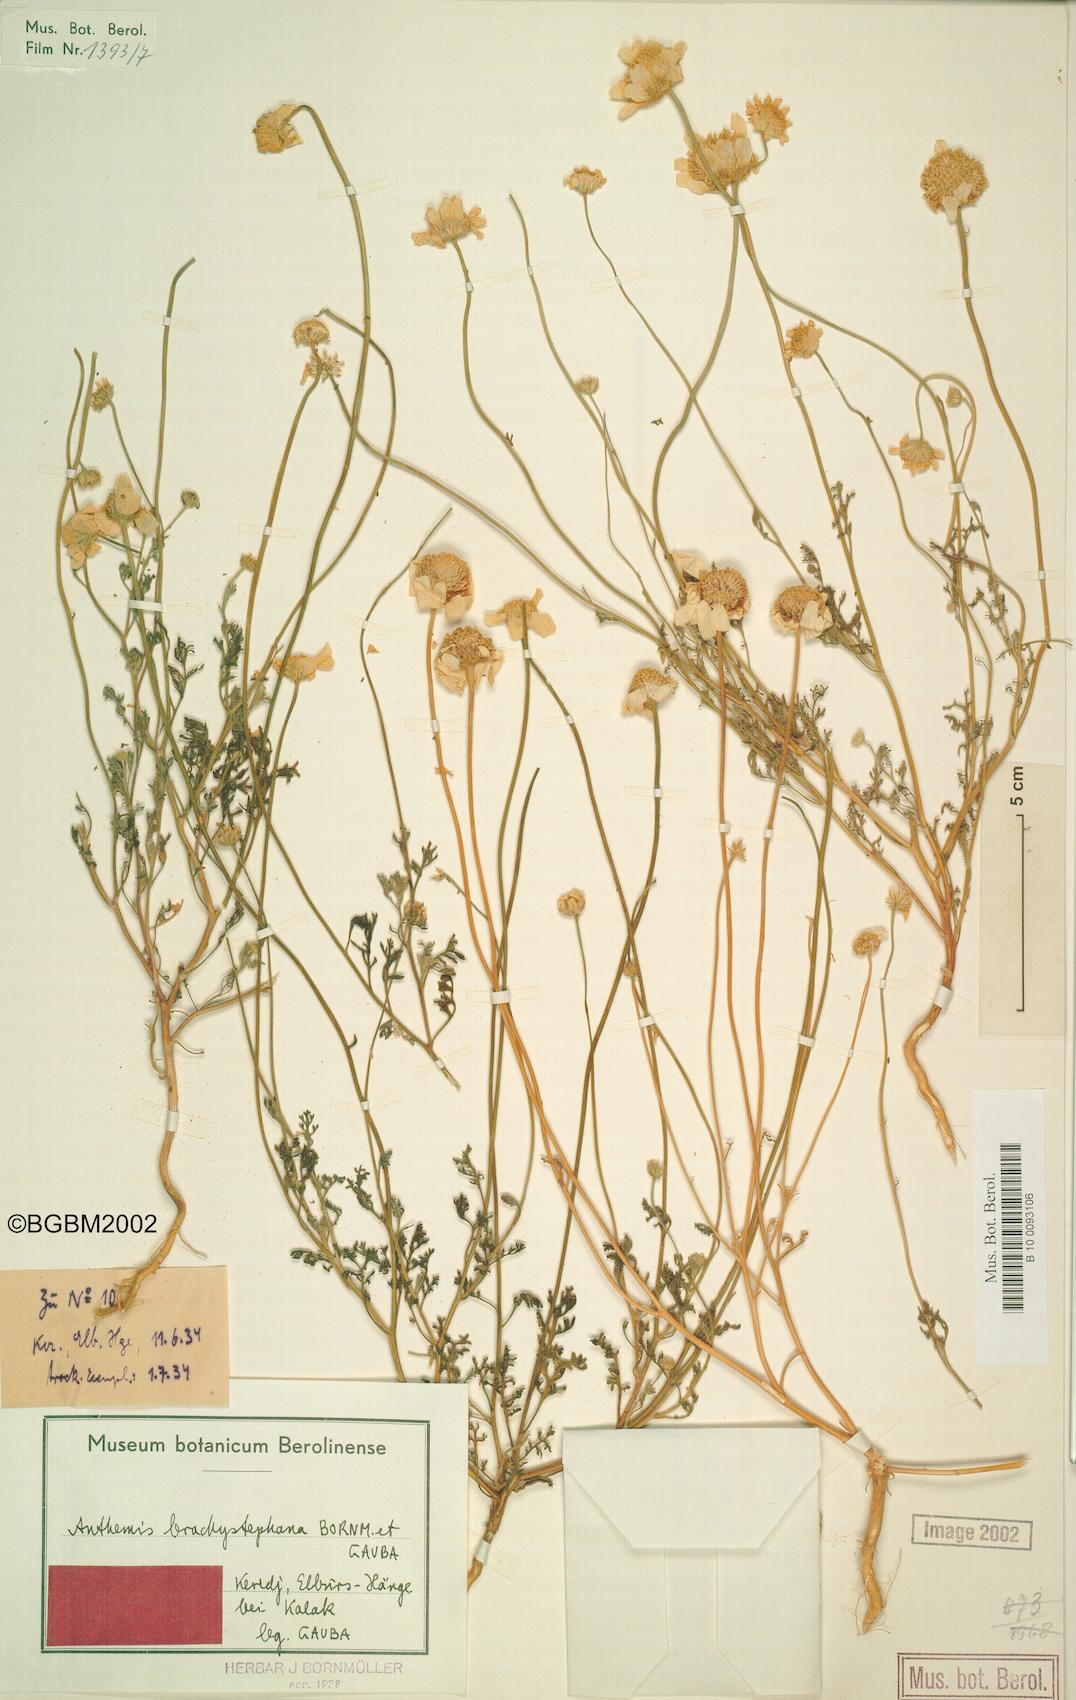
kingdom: Plantae
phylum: Tracheophyta
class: Magnoliopsida
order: Asterales
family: Asteraceae
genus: Anthemis
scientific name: Anthemis brachystephana
